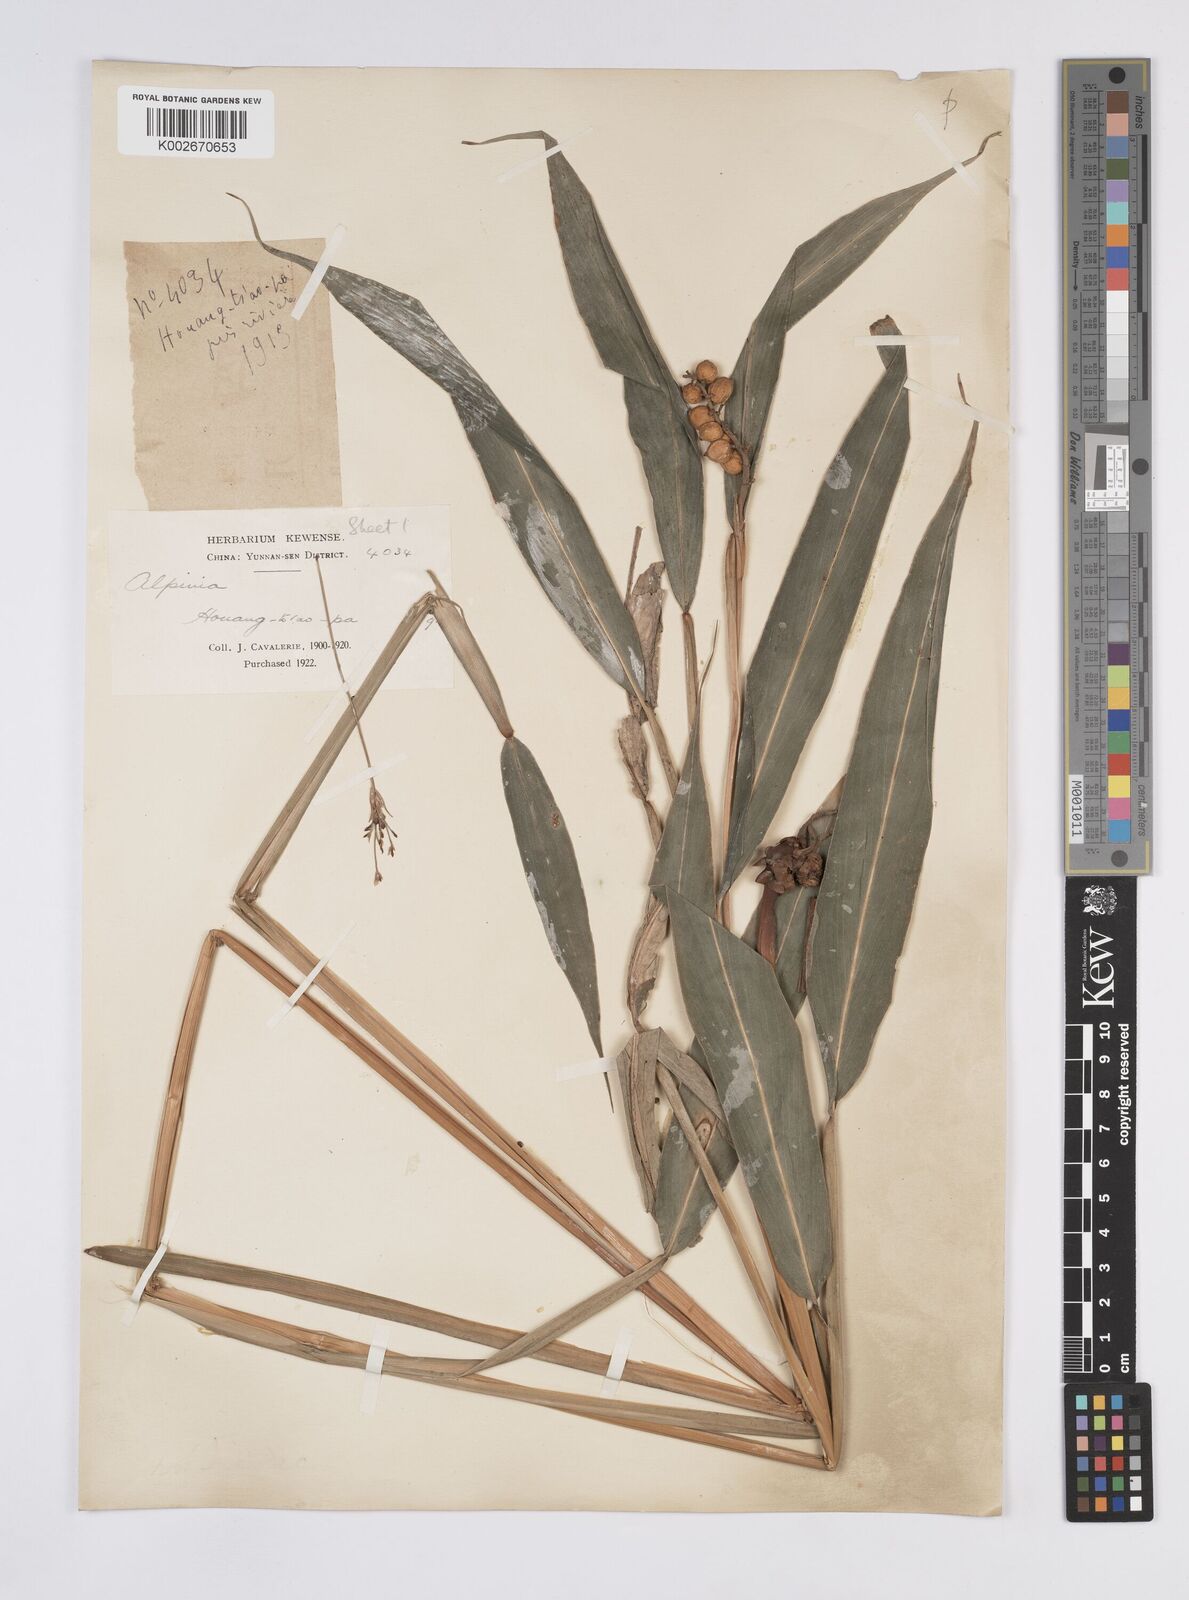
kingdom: Plantae
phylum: Tracheophyta
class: Liliopsida
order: Zingiberales
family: Zingiberaceae
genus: Alpinia
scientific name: Alpinia
